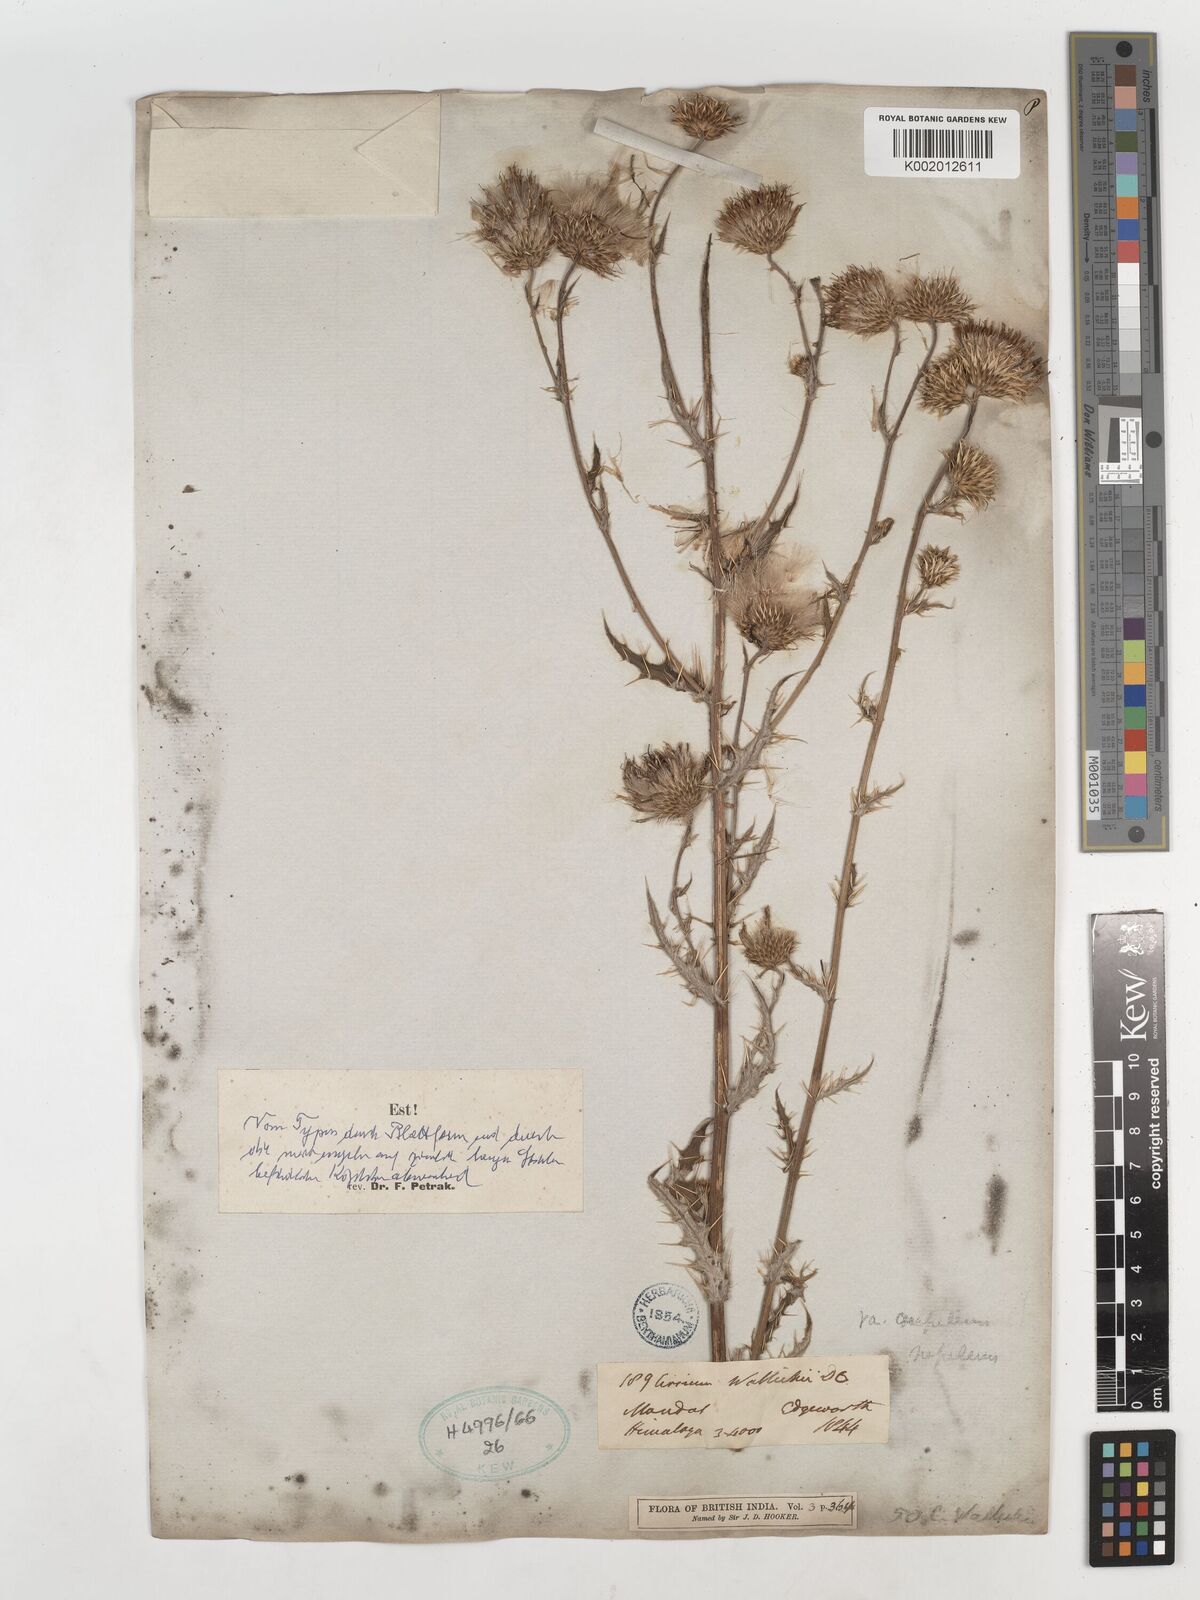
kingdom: Plantae
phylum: Tracheophyta
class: Magnoliopsida
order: Asterales
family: Asteraceae
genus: Cirsium
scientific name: Cirsium wallichii
